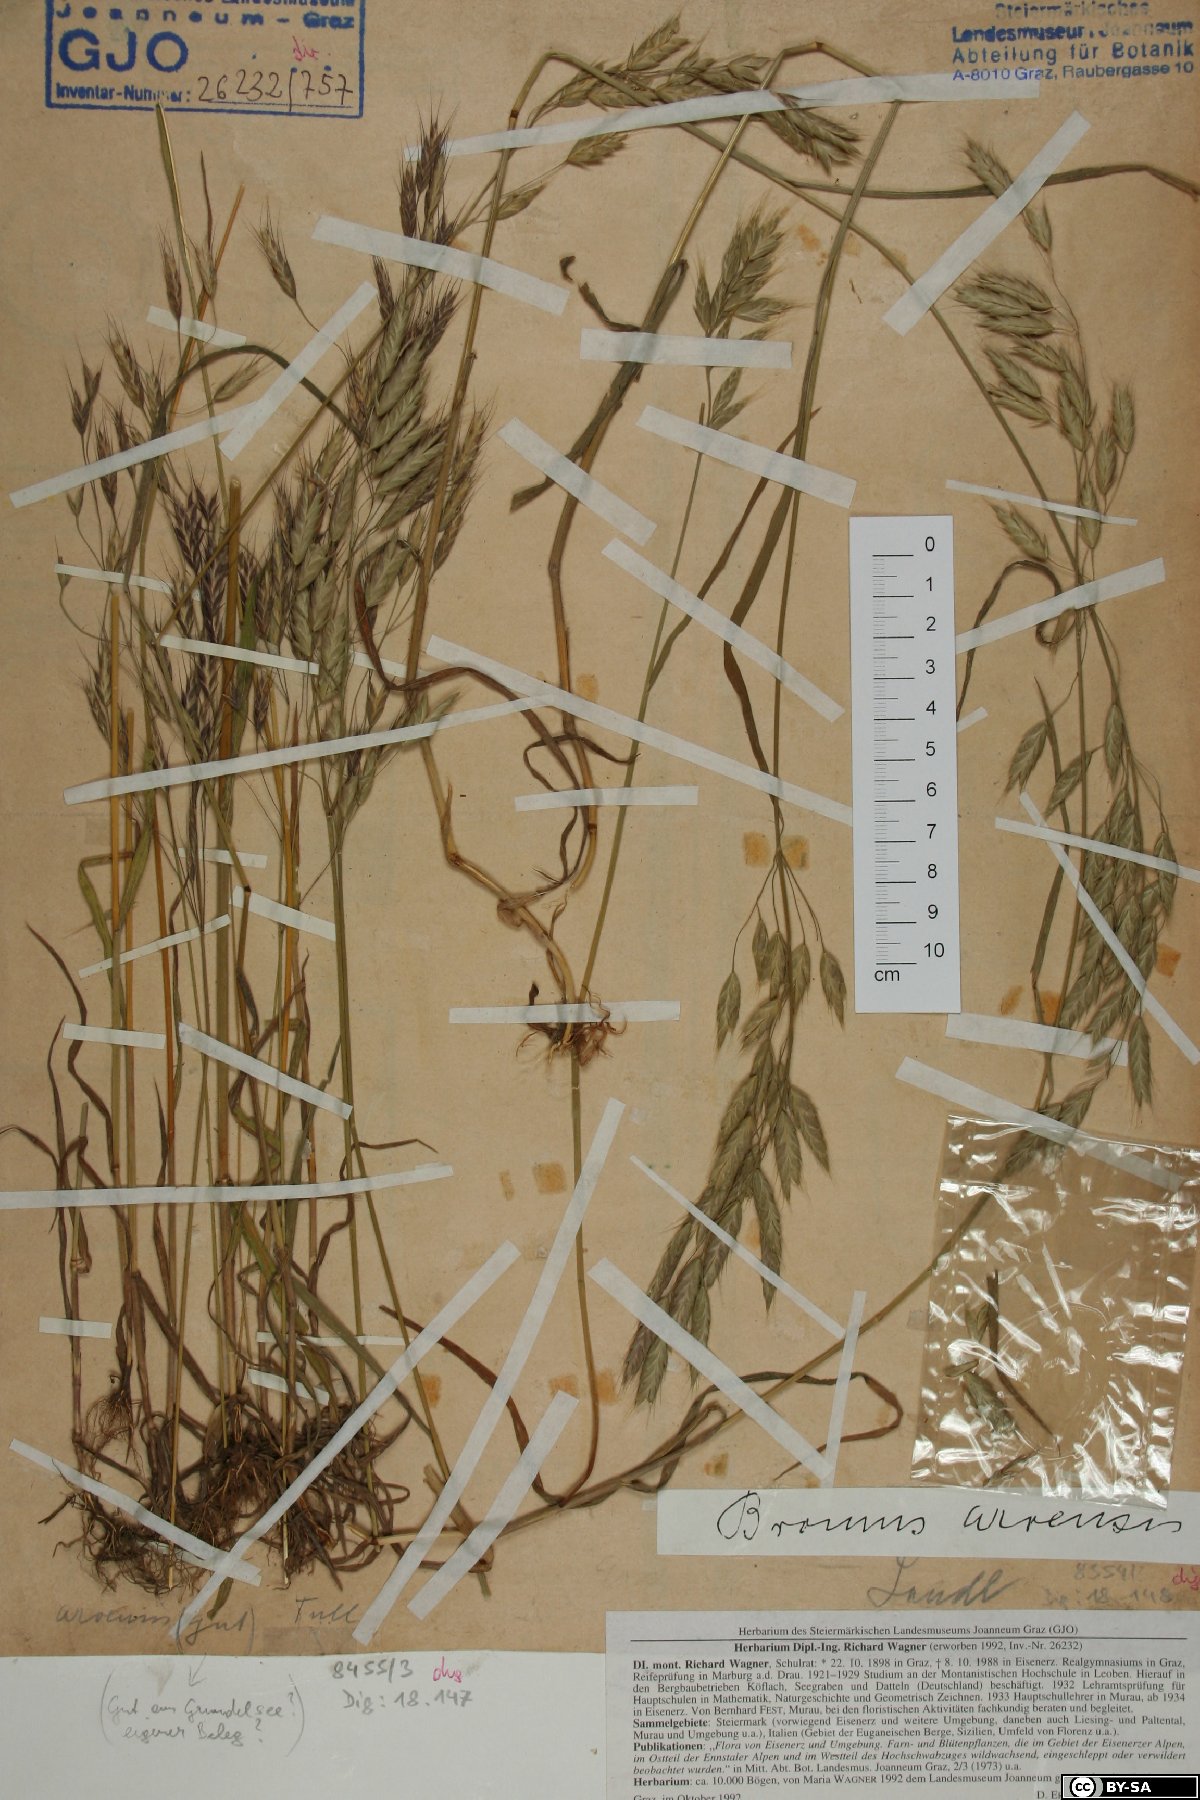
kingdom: Plantae
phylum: Tracheophyta
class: Liliopsida
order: Poales
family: Poaceae
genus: Bromus
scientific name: Bromus arvensis
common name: Field brome
